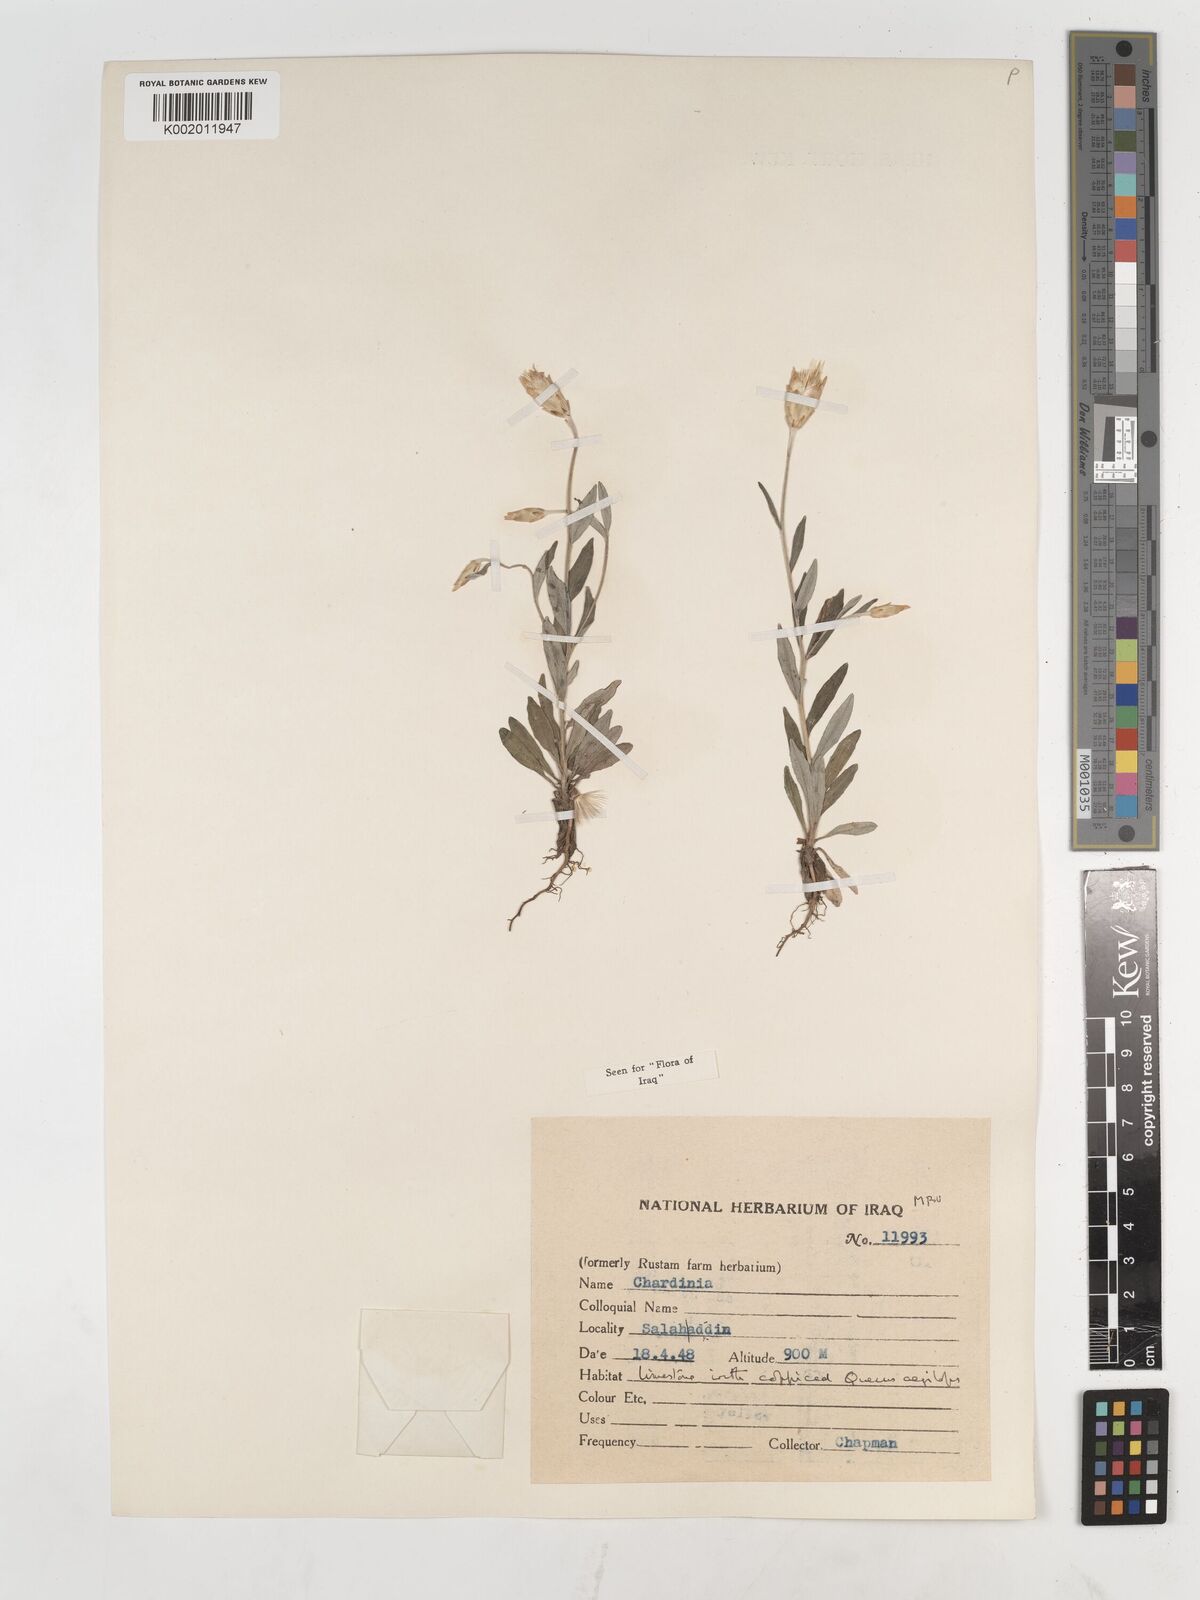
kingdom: Plantae
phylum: Tracheophyta
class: Magnoliopsida
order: Asterales
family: Asteraceae
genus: Chardinia
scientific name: Chardinia orientalis
